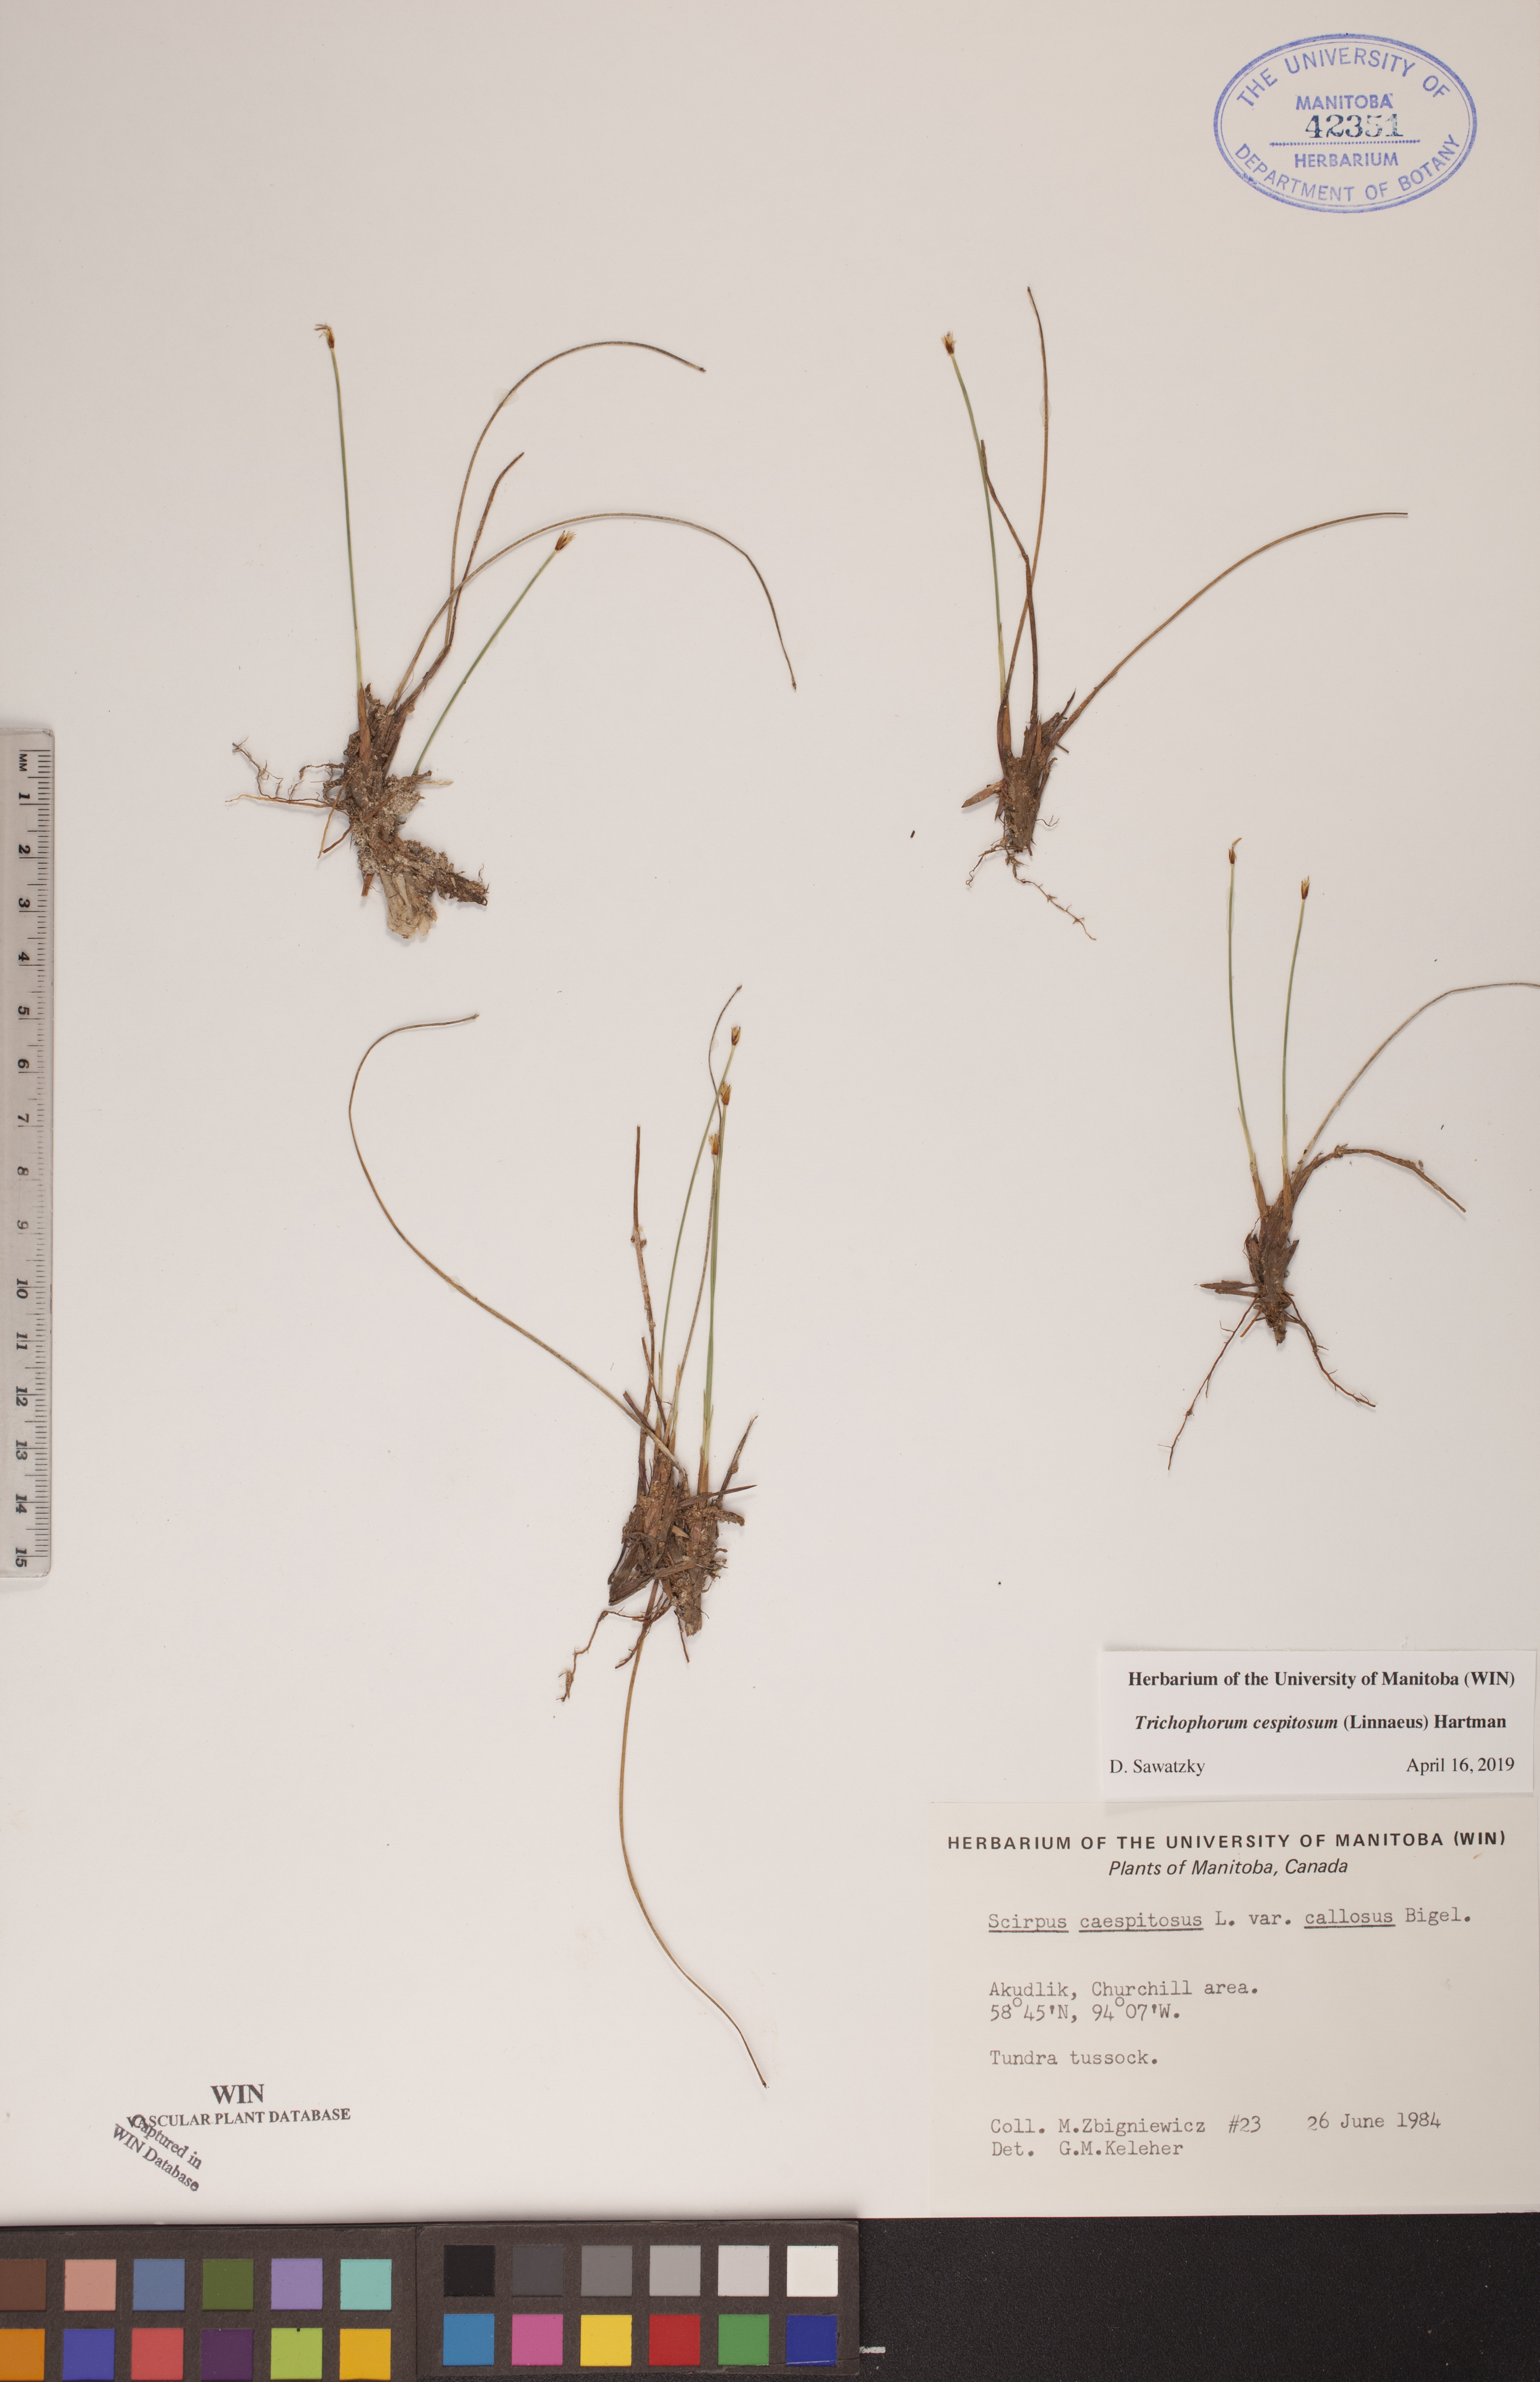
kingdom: Plantae
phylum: Tracheophyta
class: Liliopsida
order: Poales
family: Cyperaceae
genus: Trichophorum
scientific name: Trichophorum cespitosum
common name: Cespitose bulrush
